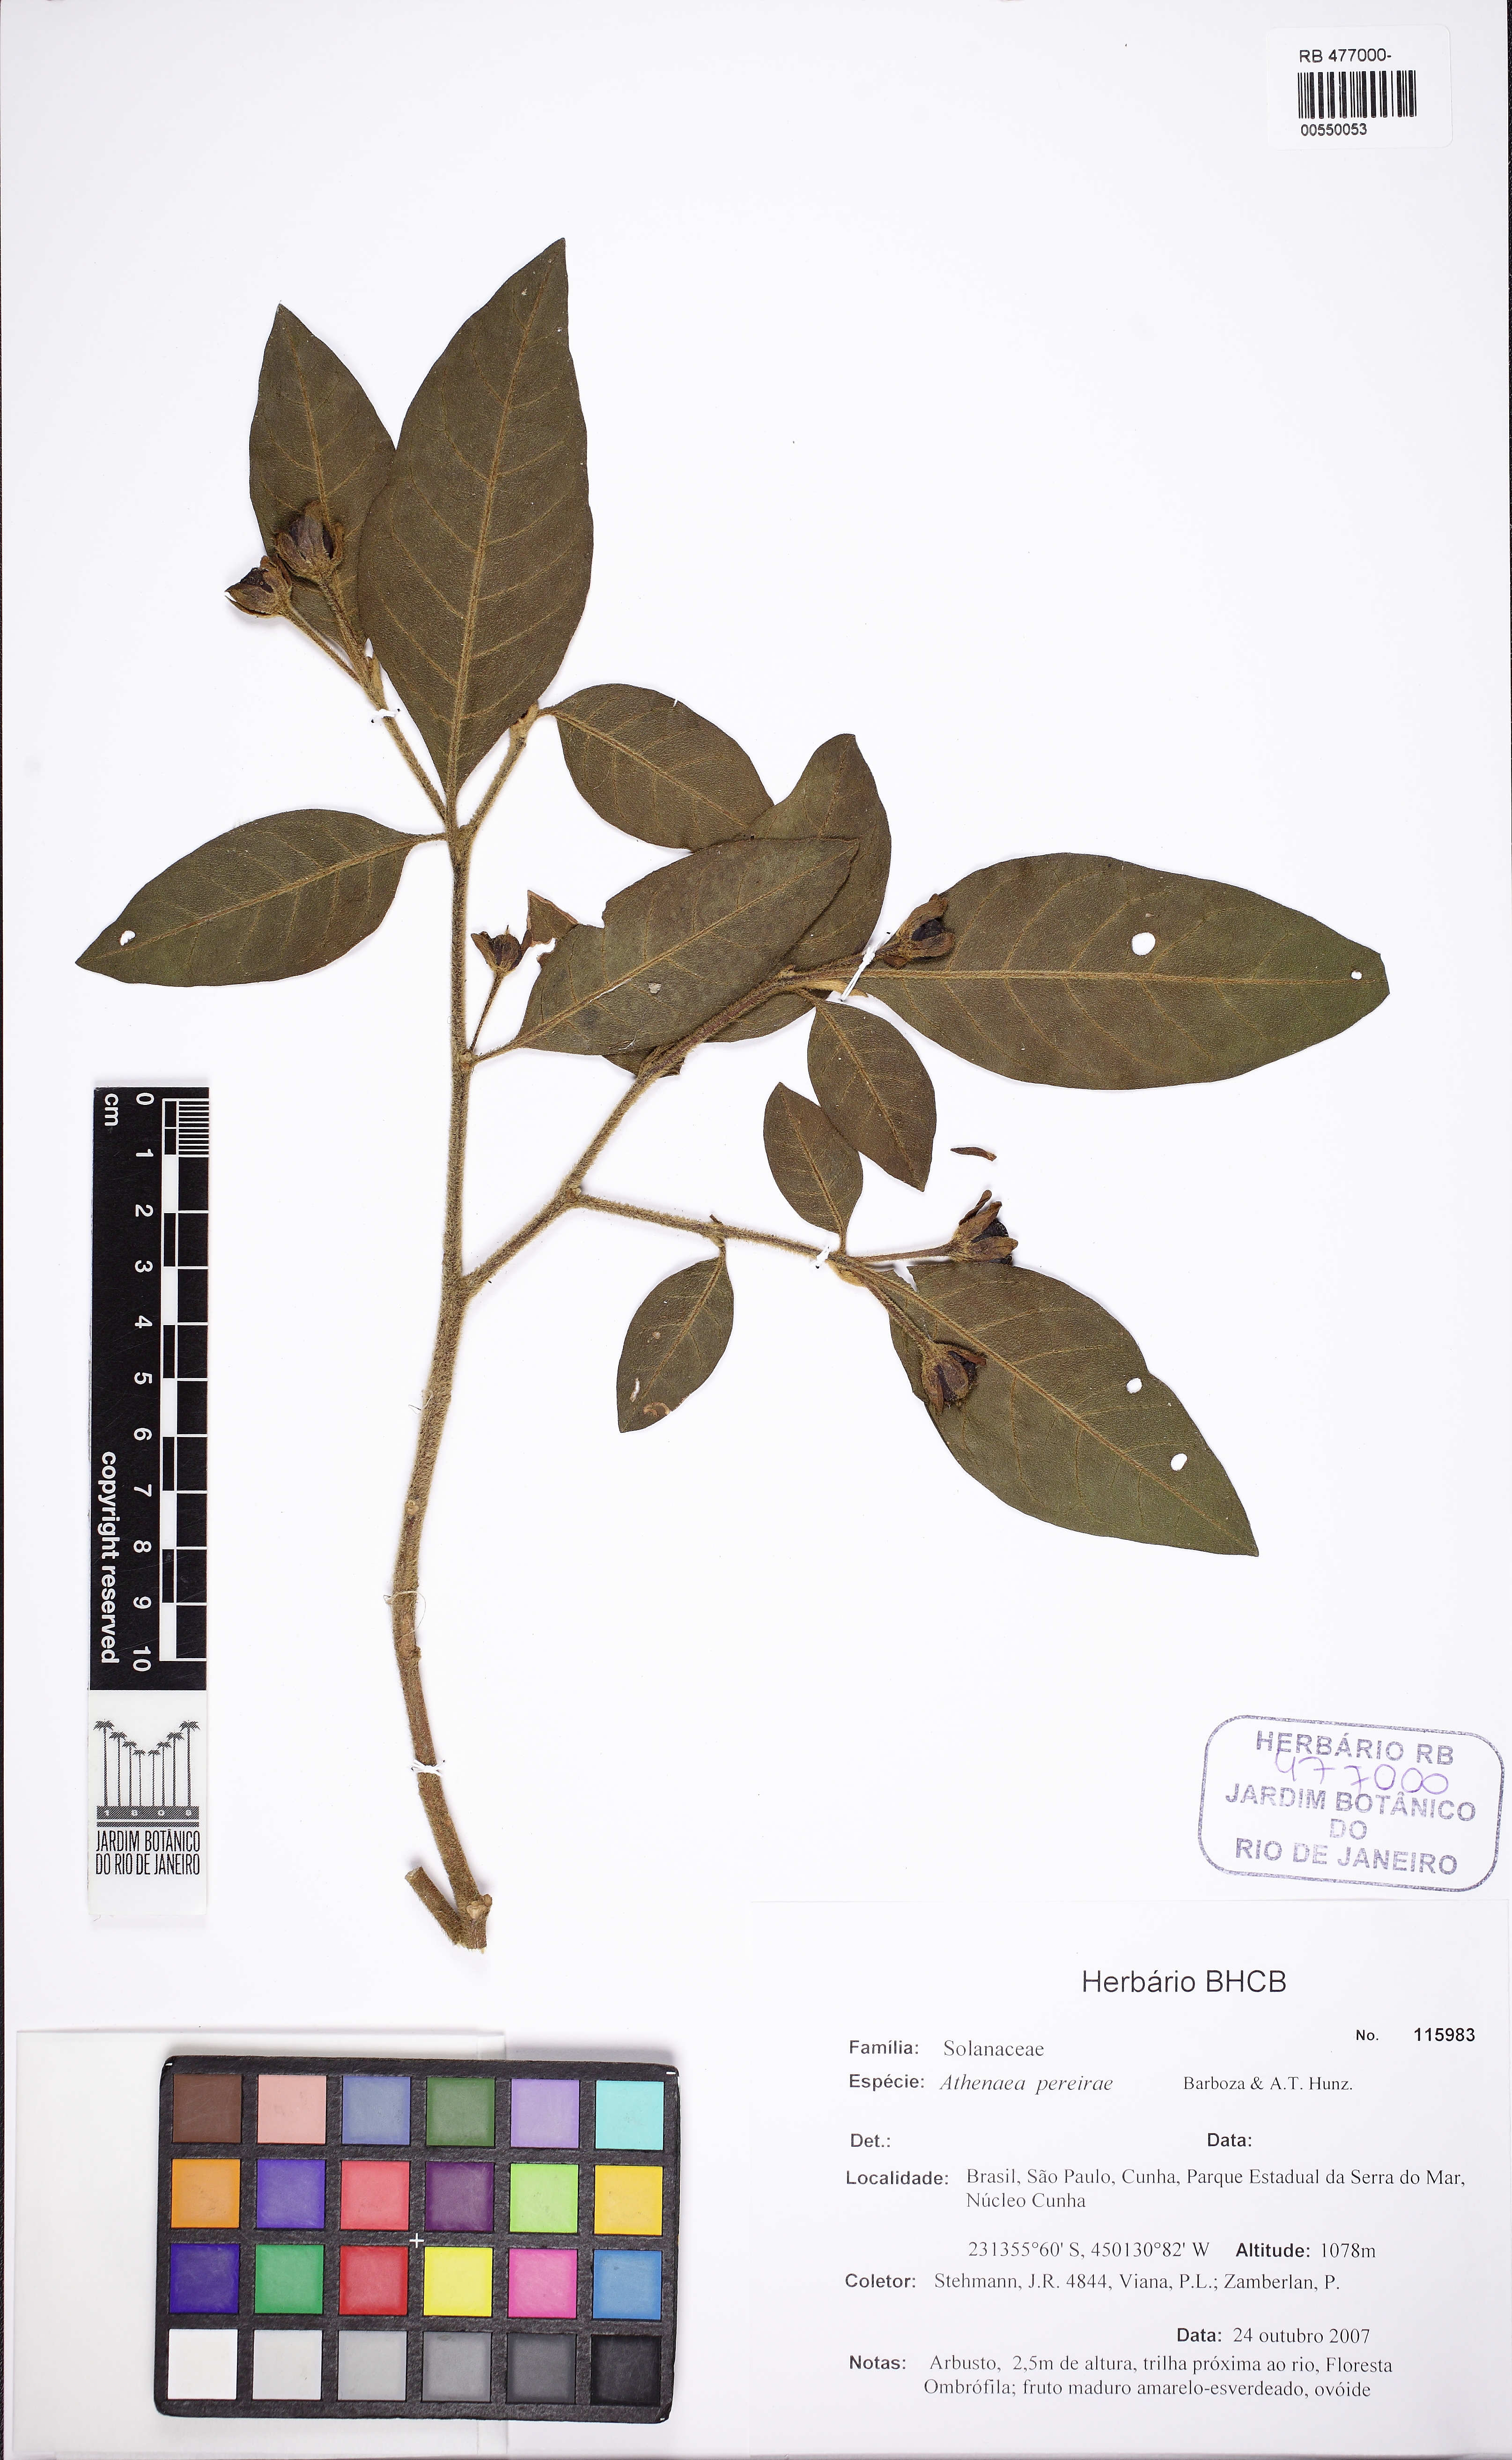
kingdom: Plantae
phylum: Tracheophyta
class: Magnoliopsida
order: Solanales
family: Solanaceae
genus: Athenaea
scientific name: Athenaea anonacea
